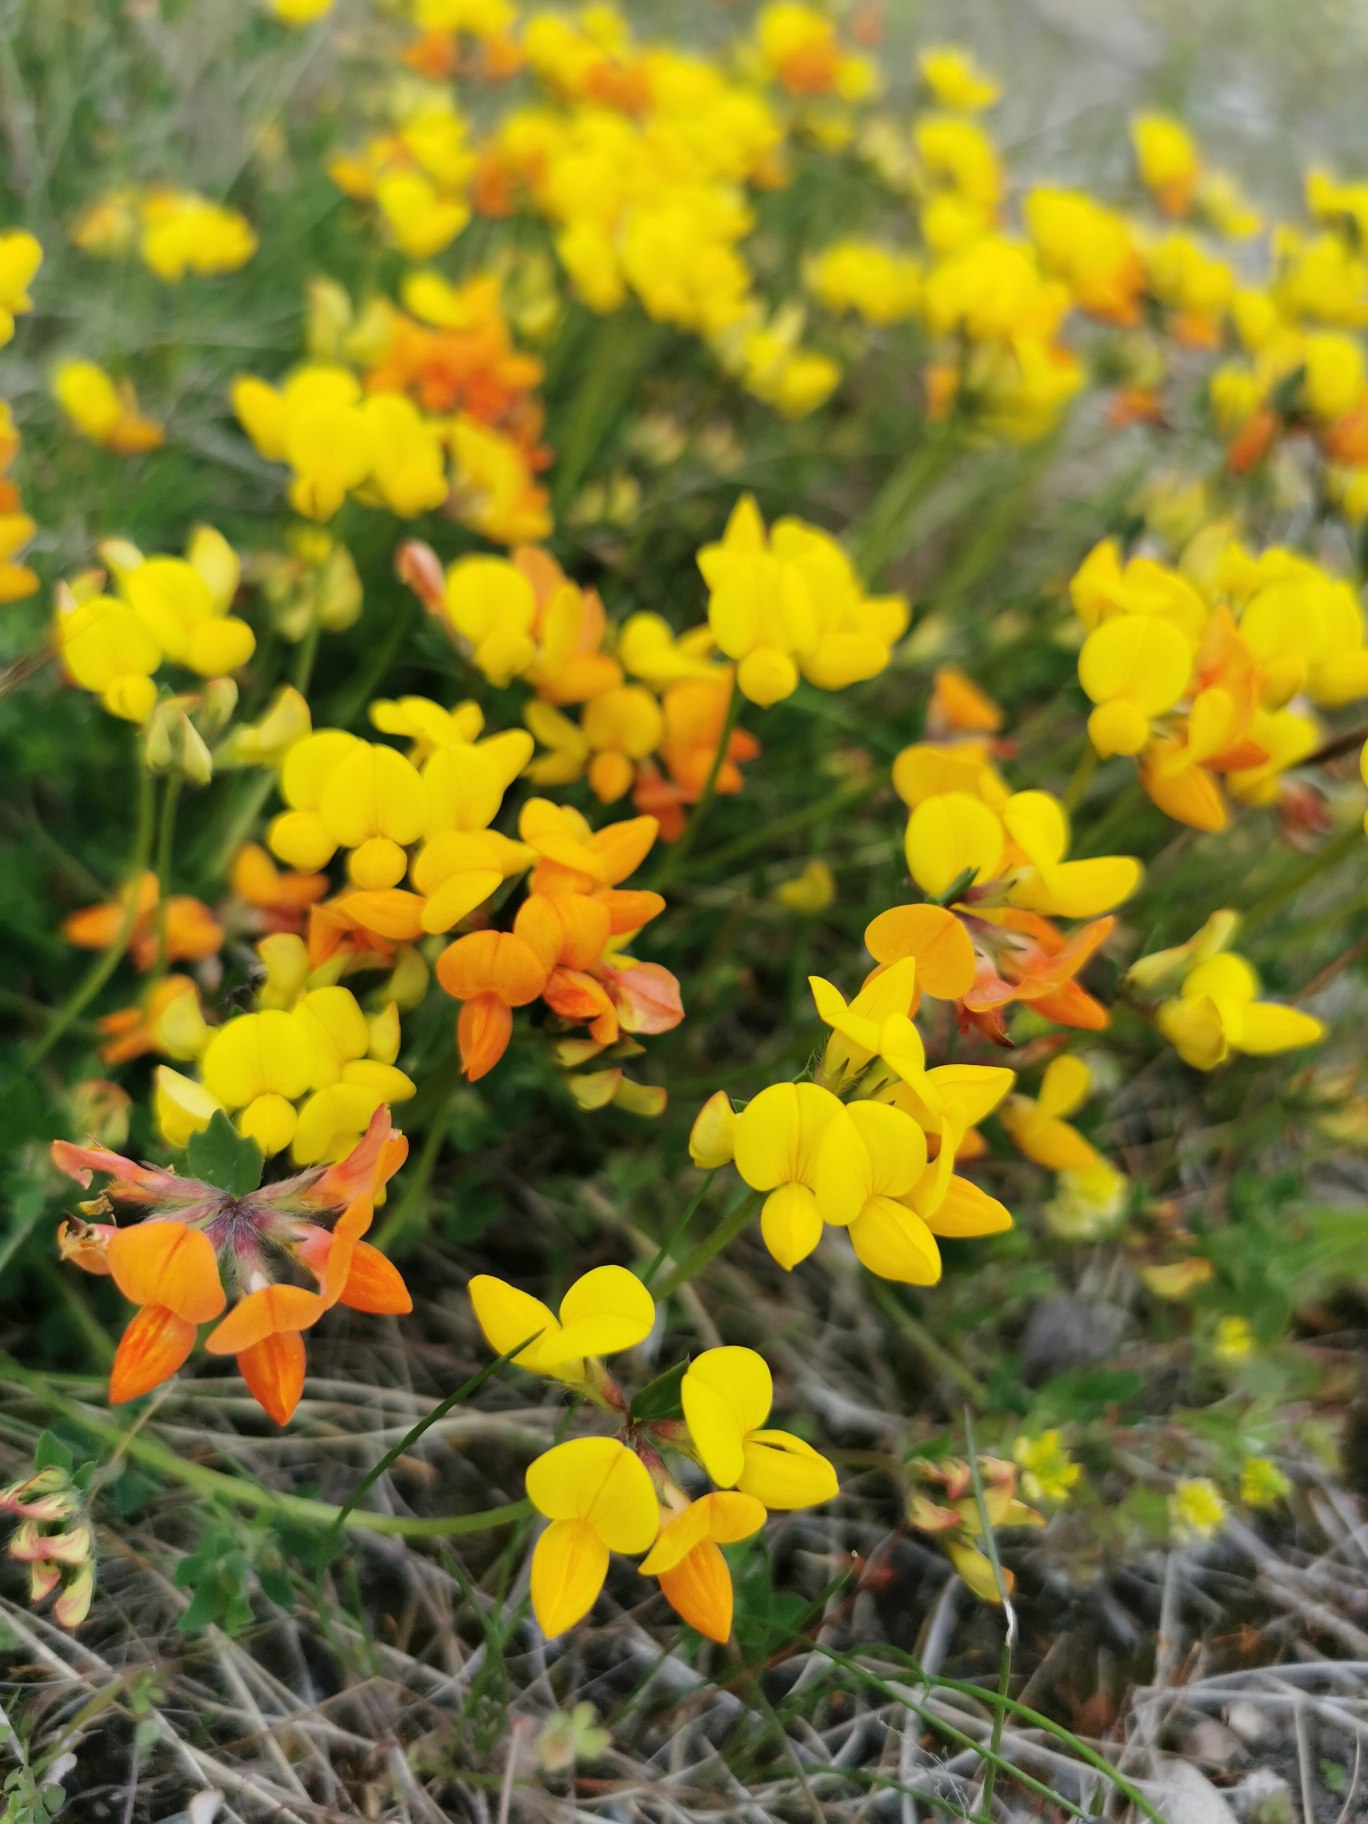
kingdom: Plantae
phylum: Tracheophyta
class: Magnoliopsida
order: Fabales
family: Fabaceae
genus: Lotus
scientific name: Lotus corniculatus
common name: Almindelig kællingetand
